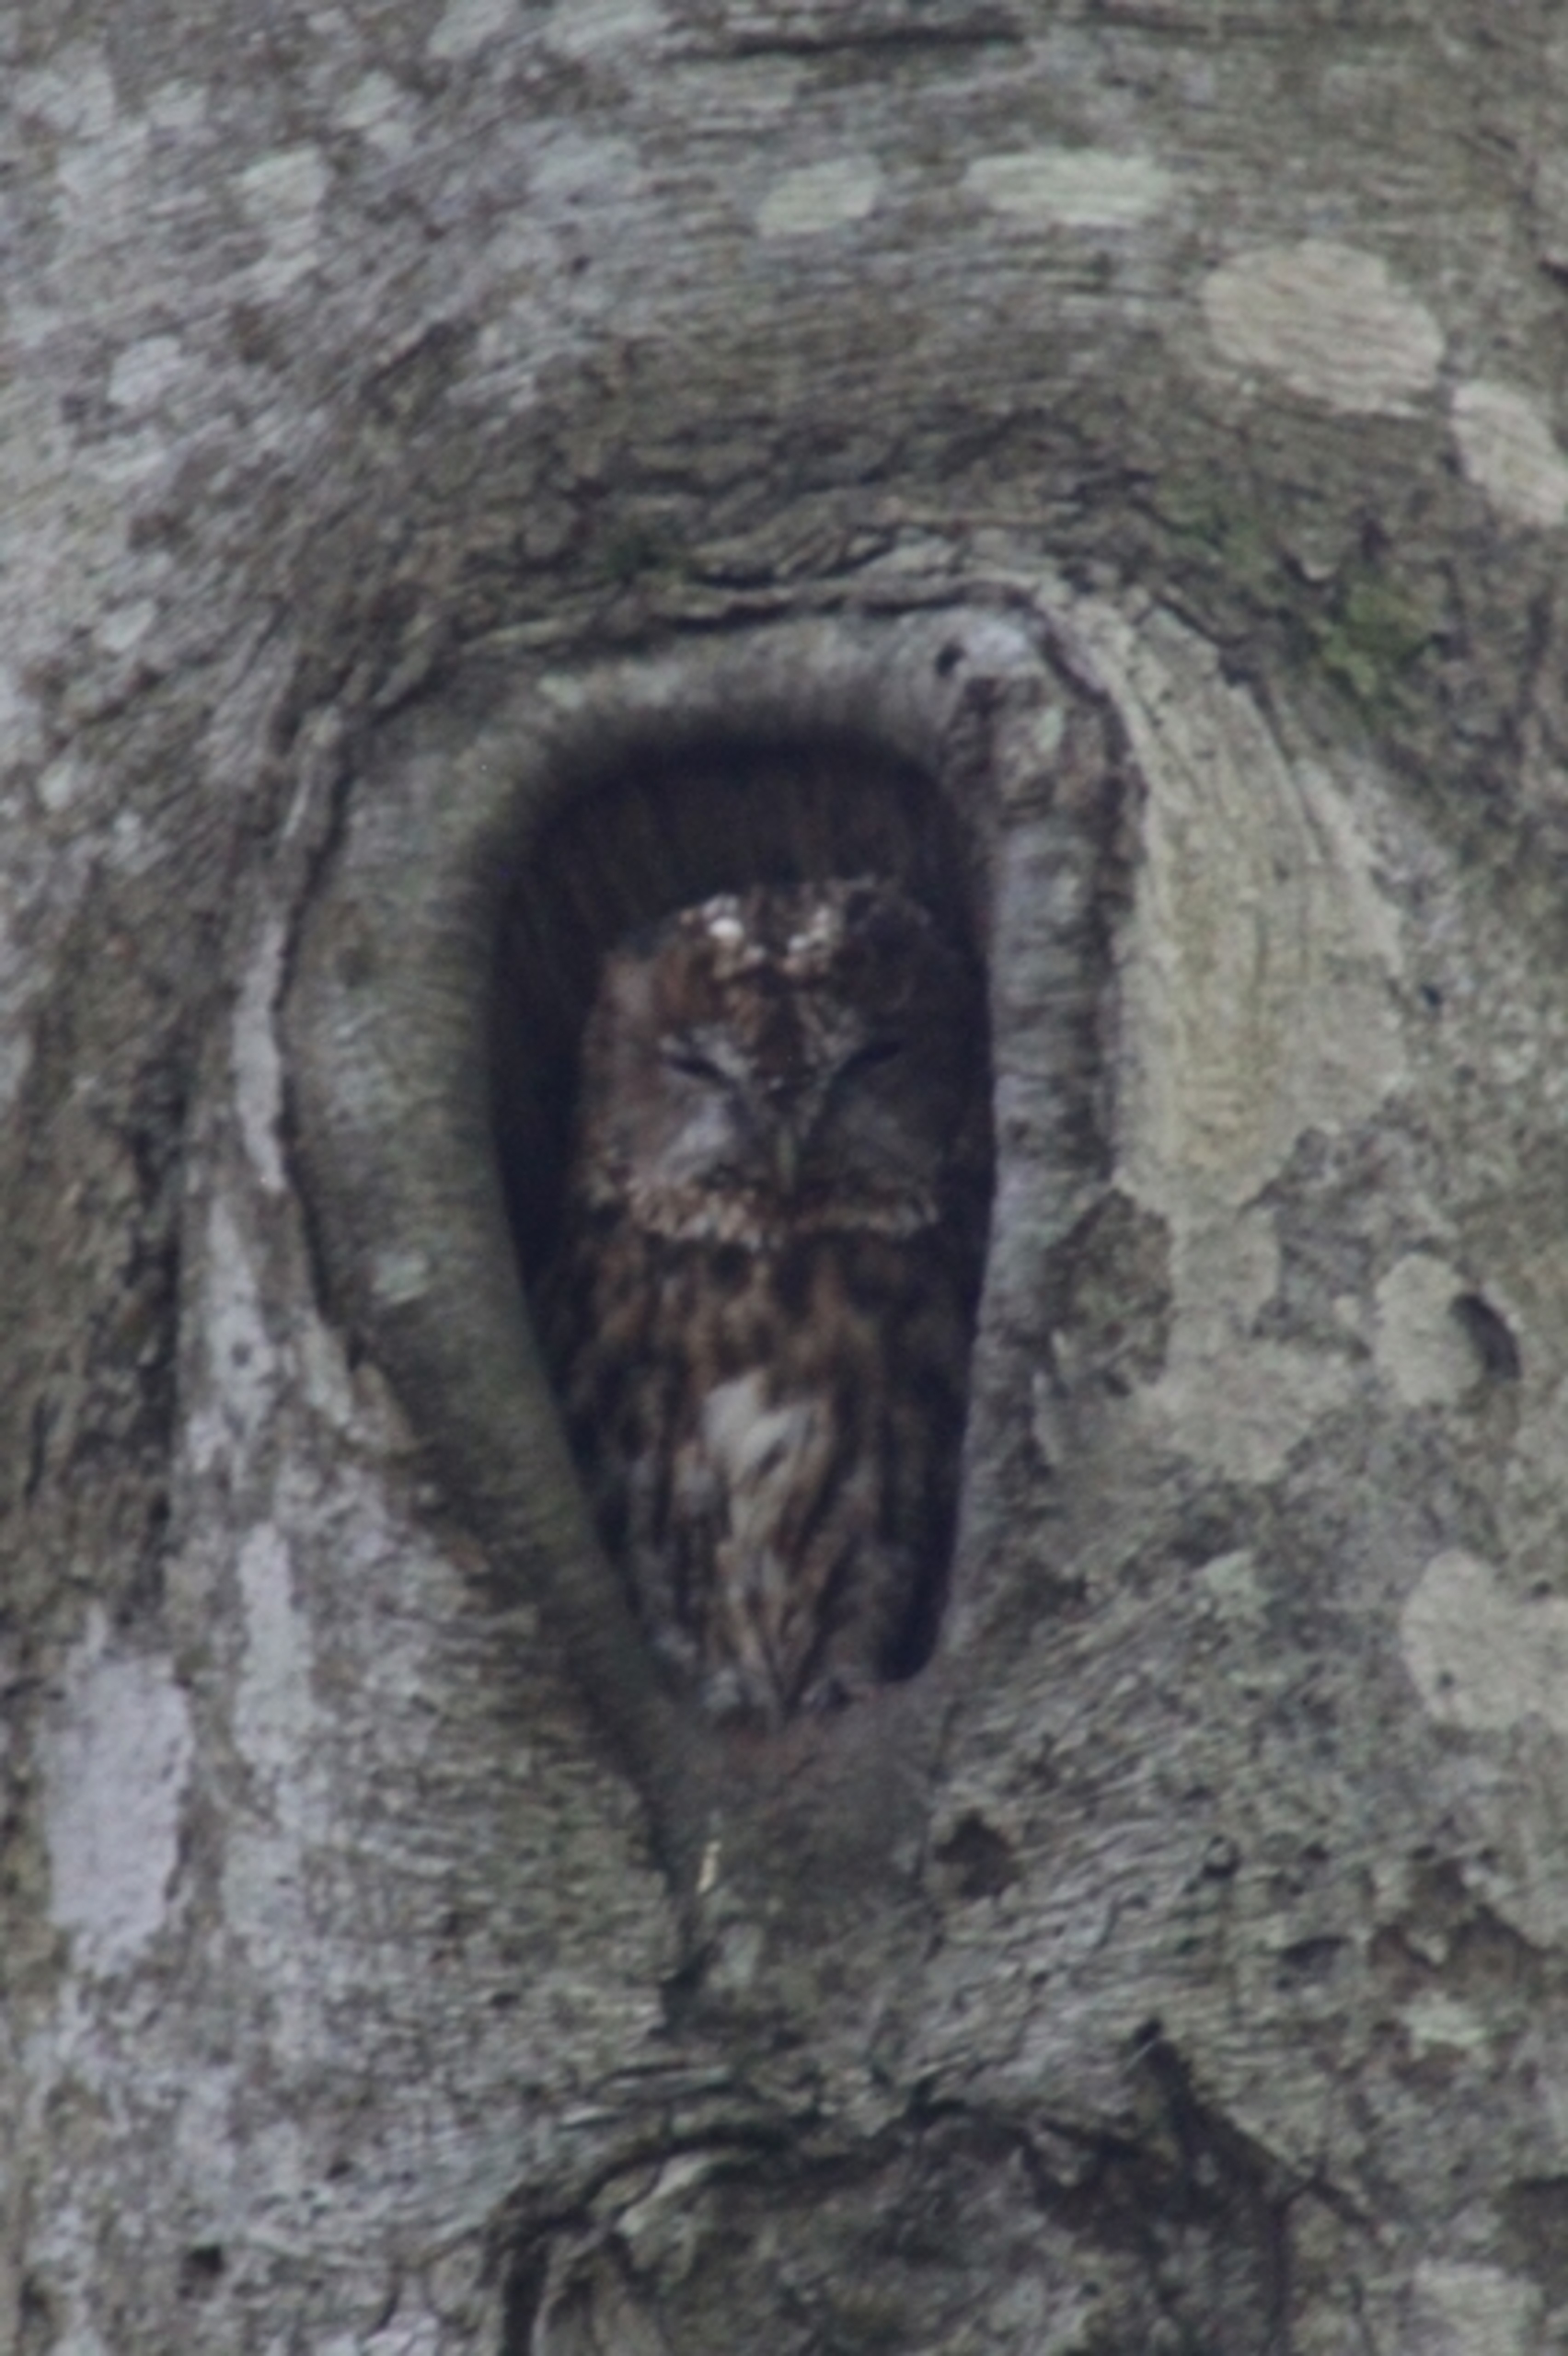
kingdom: Animalia
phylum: Chordata
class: Aves
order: Strigiformes
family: Strigidae
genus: Strix
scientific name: Strix aluco
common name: Natugle
